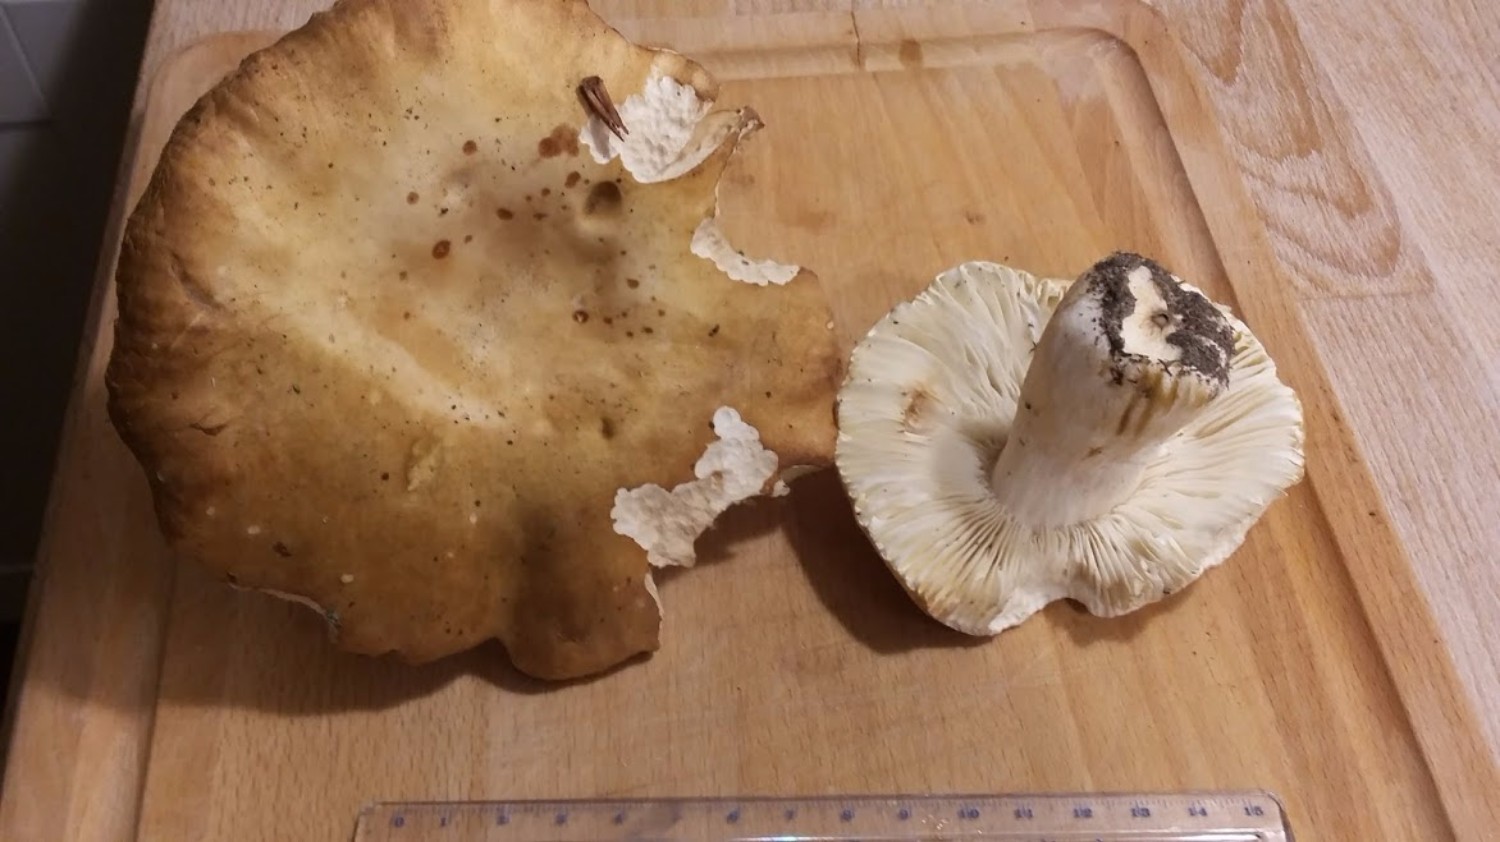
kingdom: Fungi
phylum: Basidiomycota
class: Agaricomycetes
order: Russulales
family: Russulaceae
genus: Russula
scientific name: Russula graveolens
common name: bugtet skørhat
